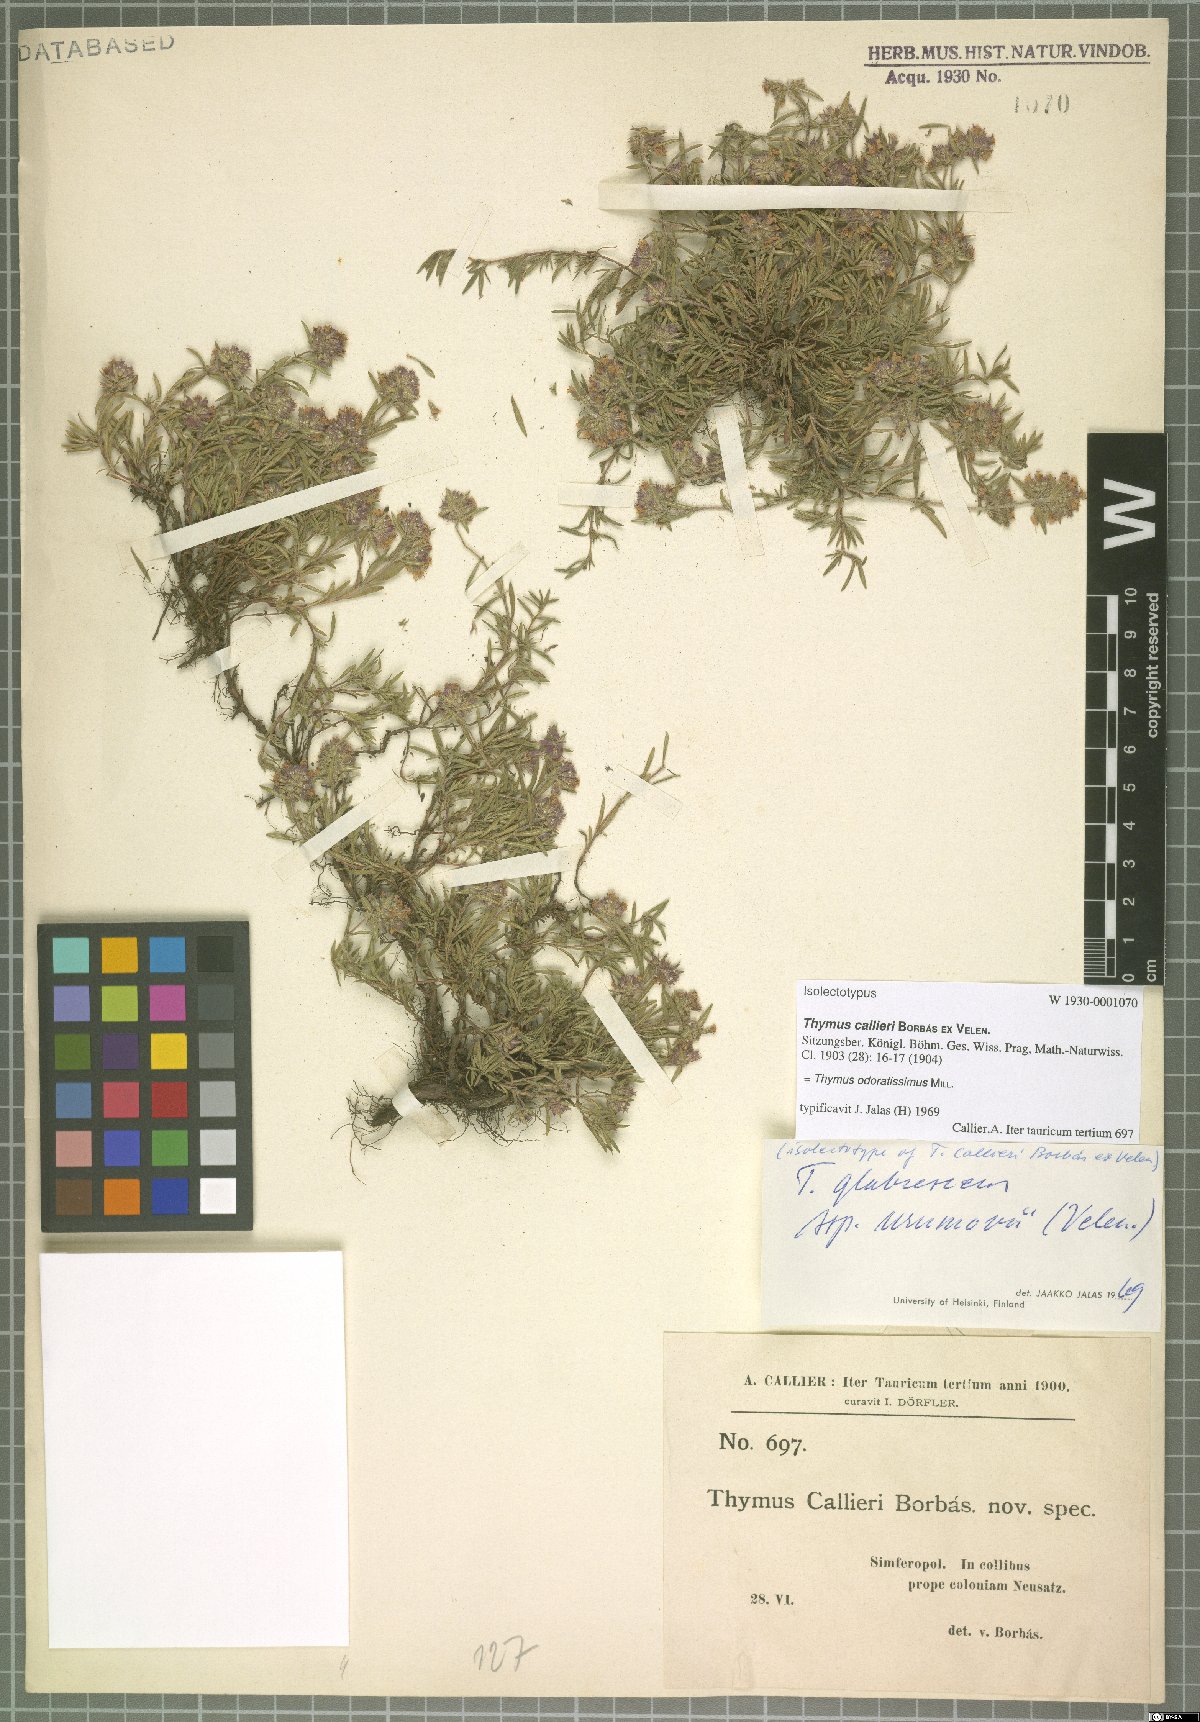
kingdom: Plantae
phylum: Tracheophyta
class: Magnoliopsida
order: Lamiales
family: Lamiaceae
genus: Thymus
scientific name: Thymus odoratissimus
